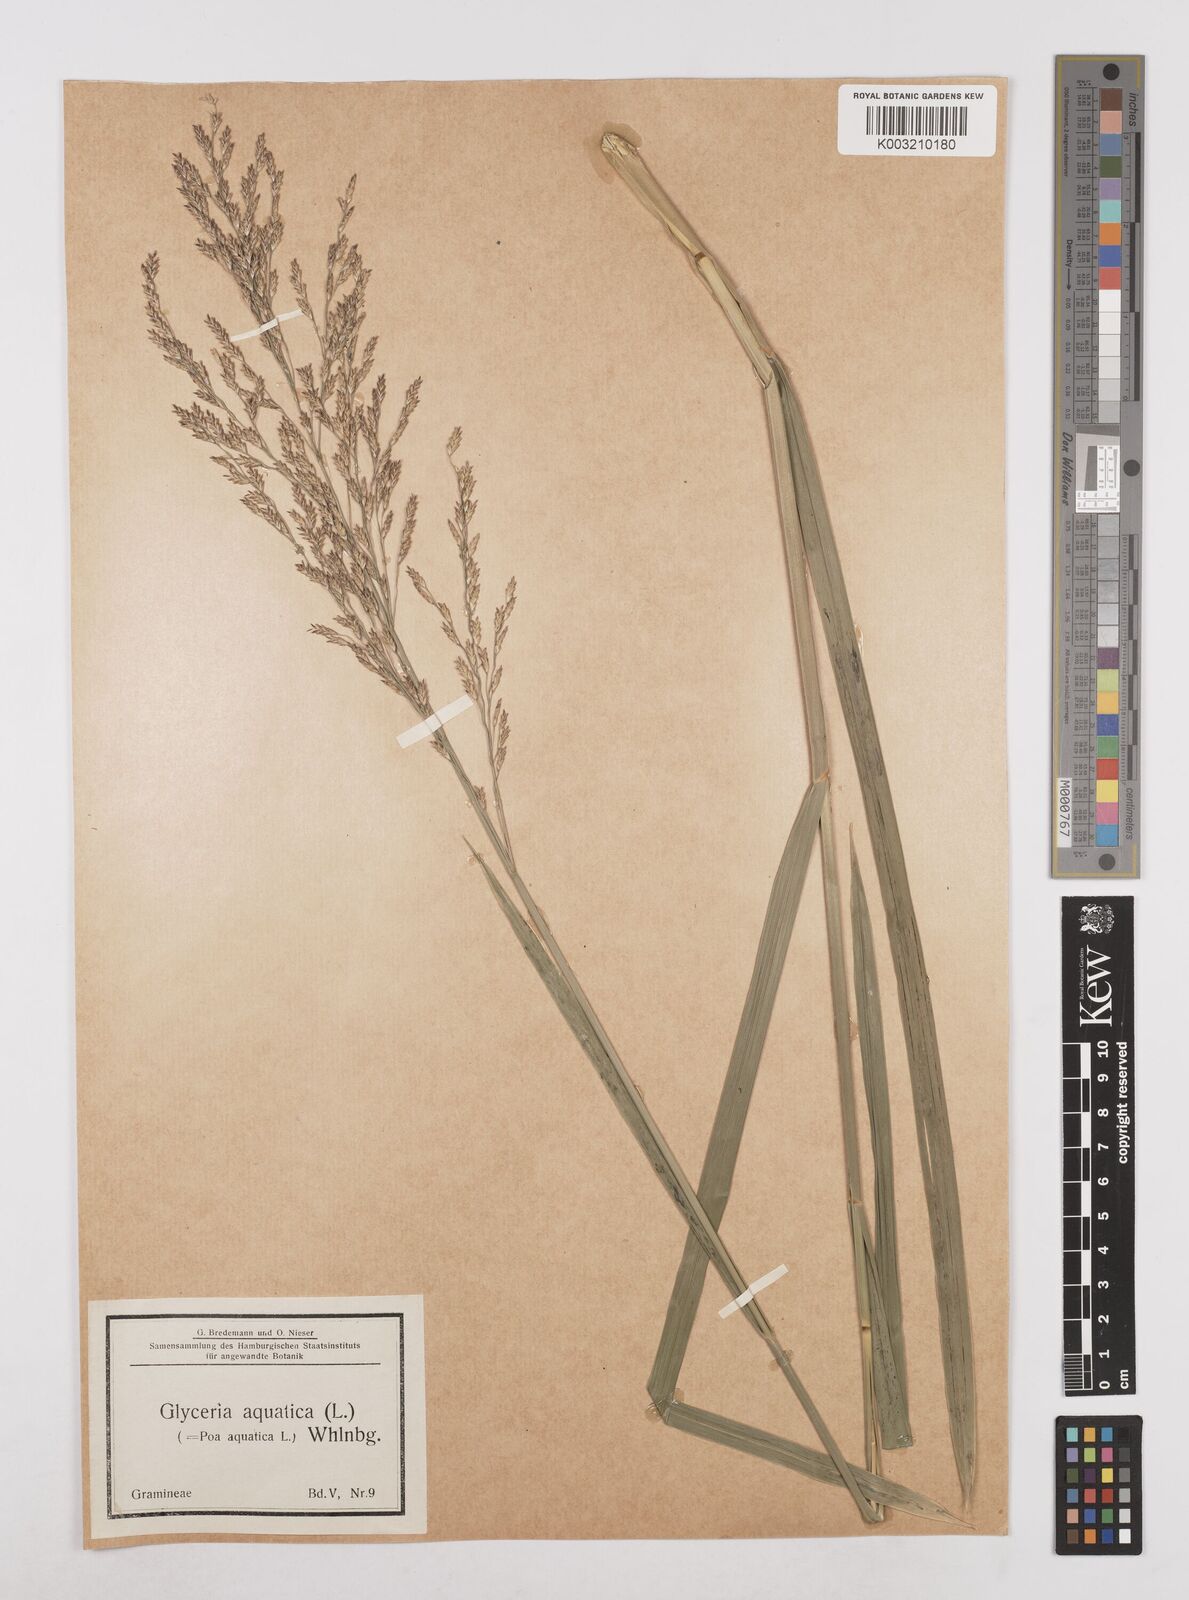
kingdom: Plantae
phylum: Tracheophyta
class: Liliopsida
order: Poales
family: Poaceae
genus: Glyceria
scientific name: Glyceria maxima
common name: Reed mannagrass
